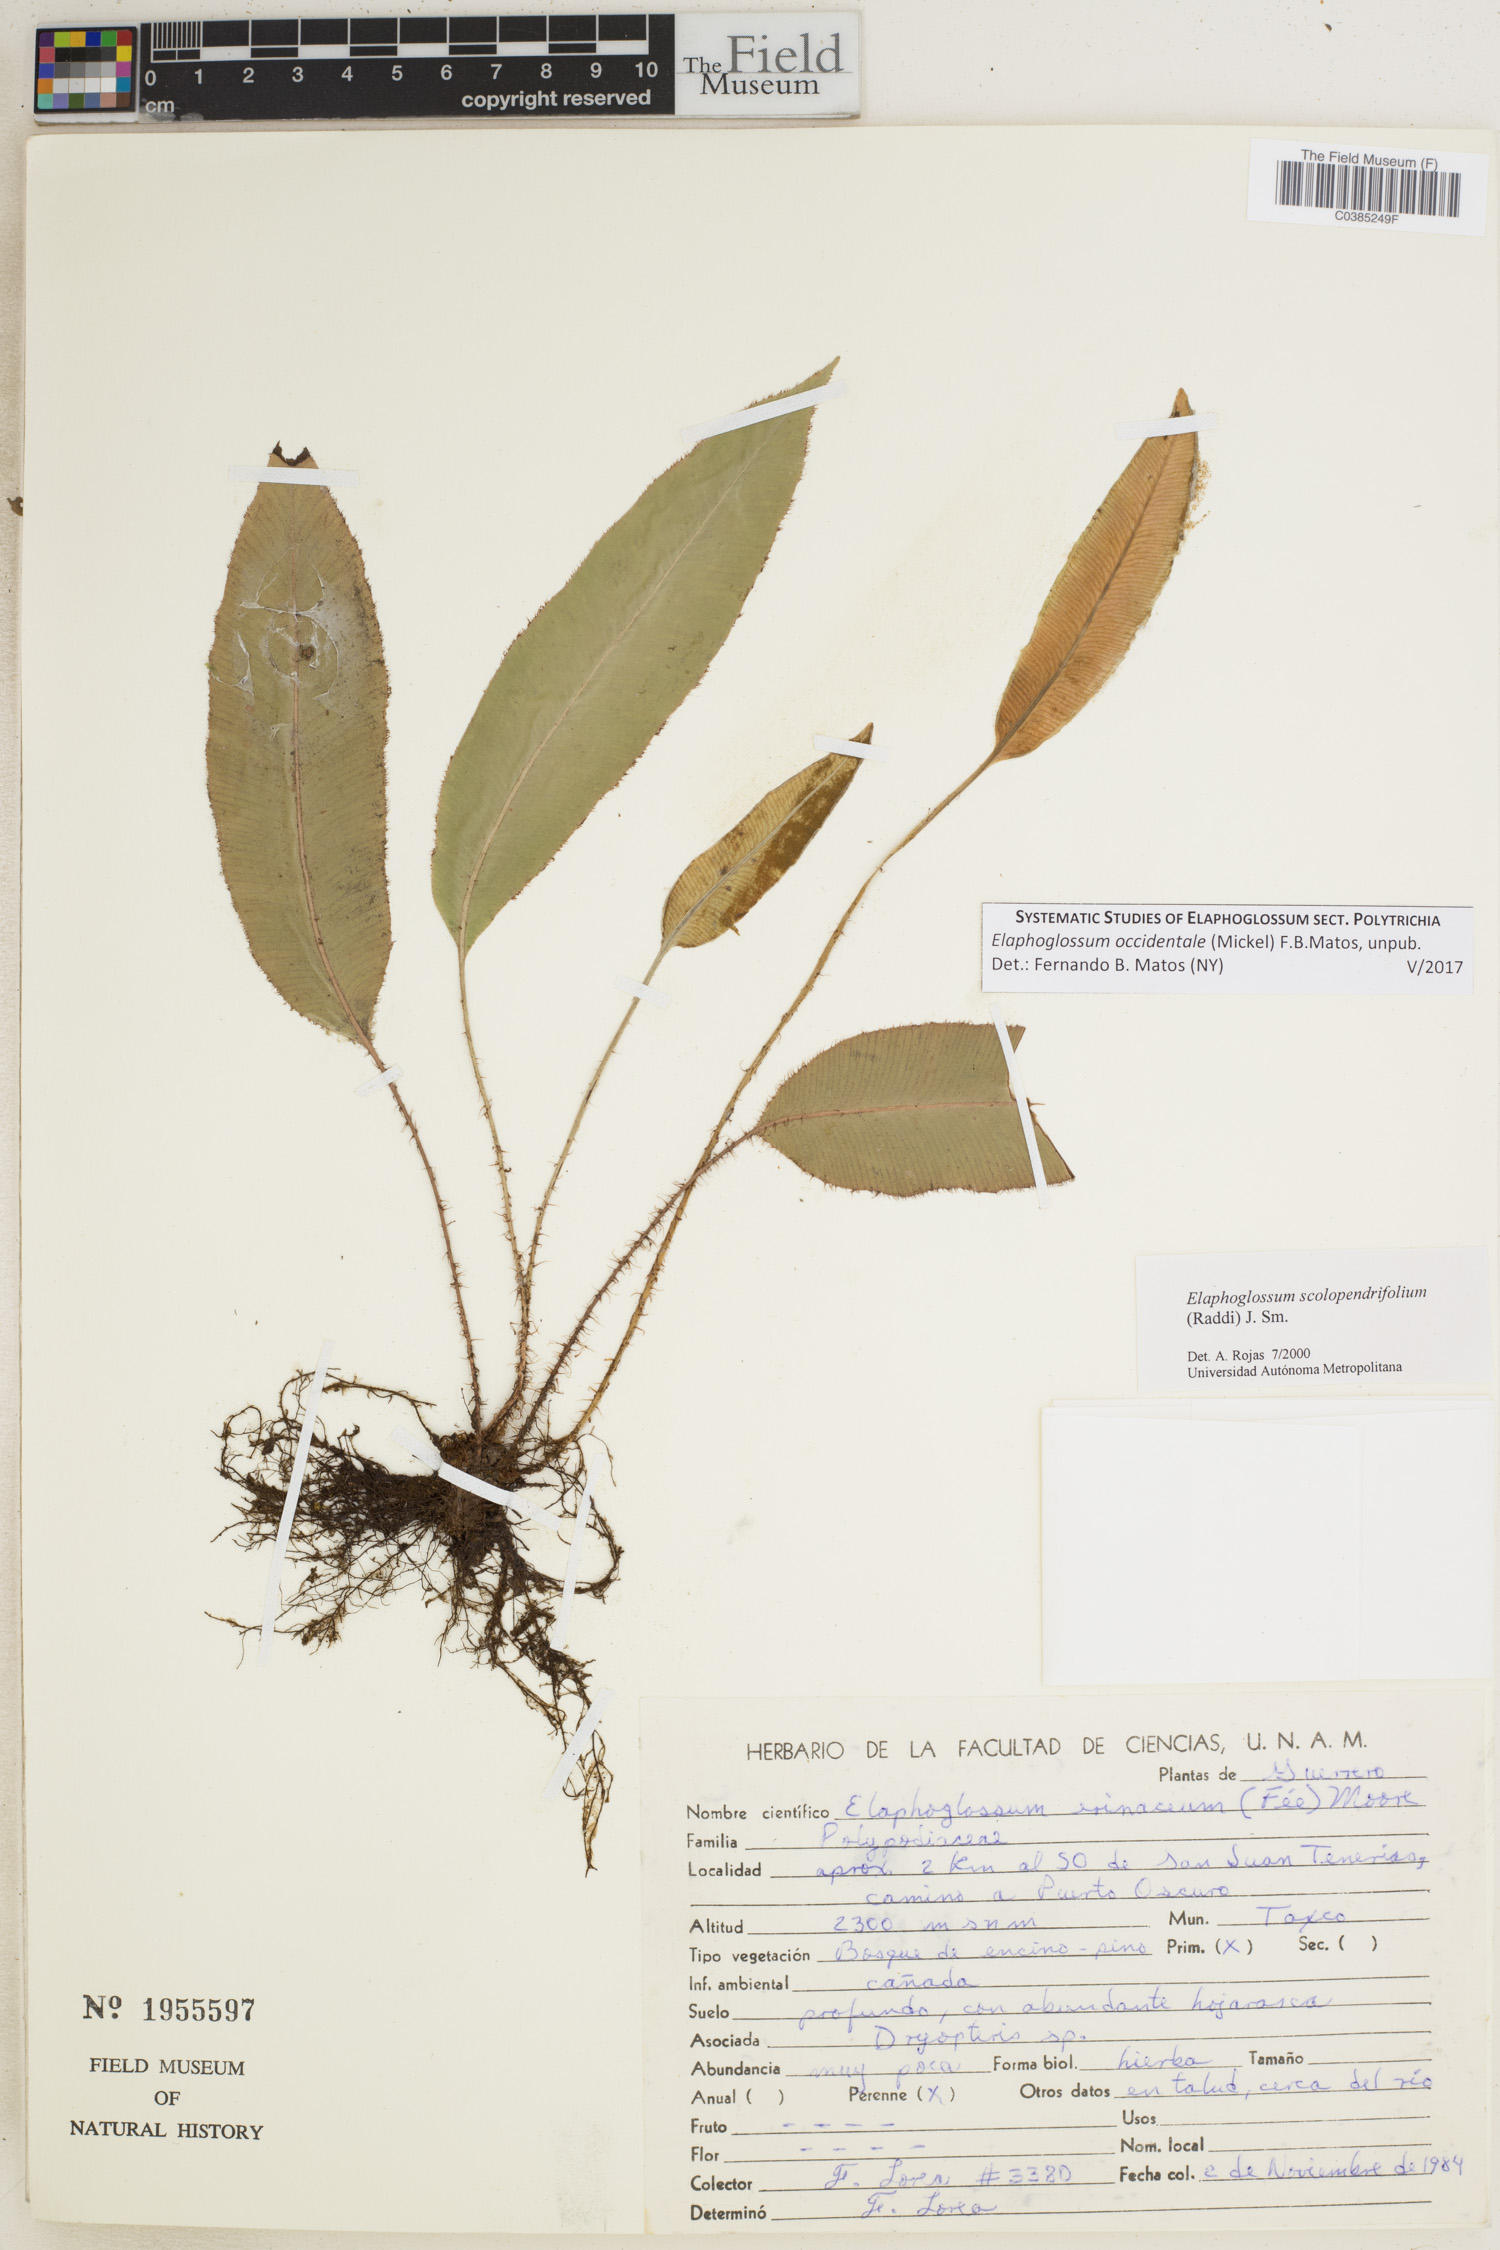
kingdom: Plantae
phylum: Tracheophyta
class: Polypodiopsida
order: Polypodiales
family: Dryopteridaceae
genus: Elaphoglossum
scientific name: Elaphoglossum scolopendrifolium
